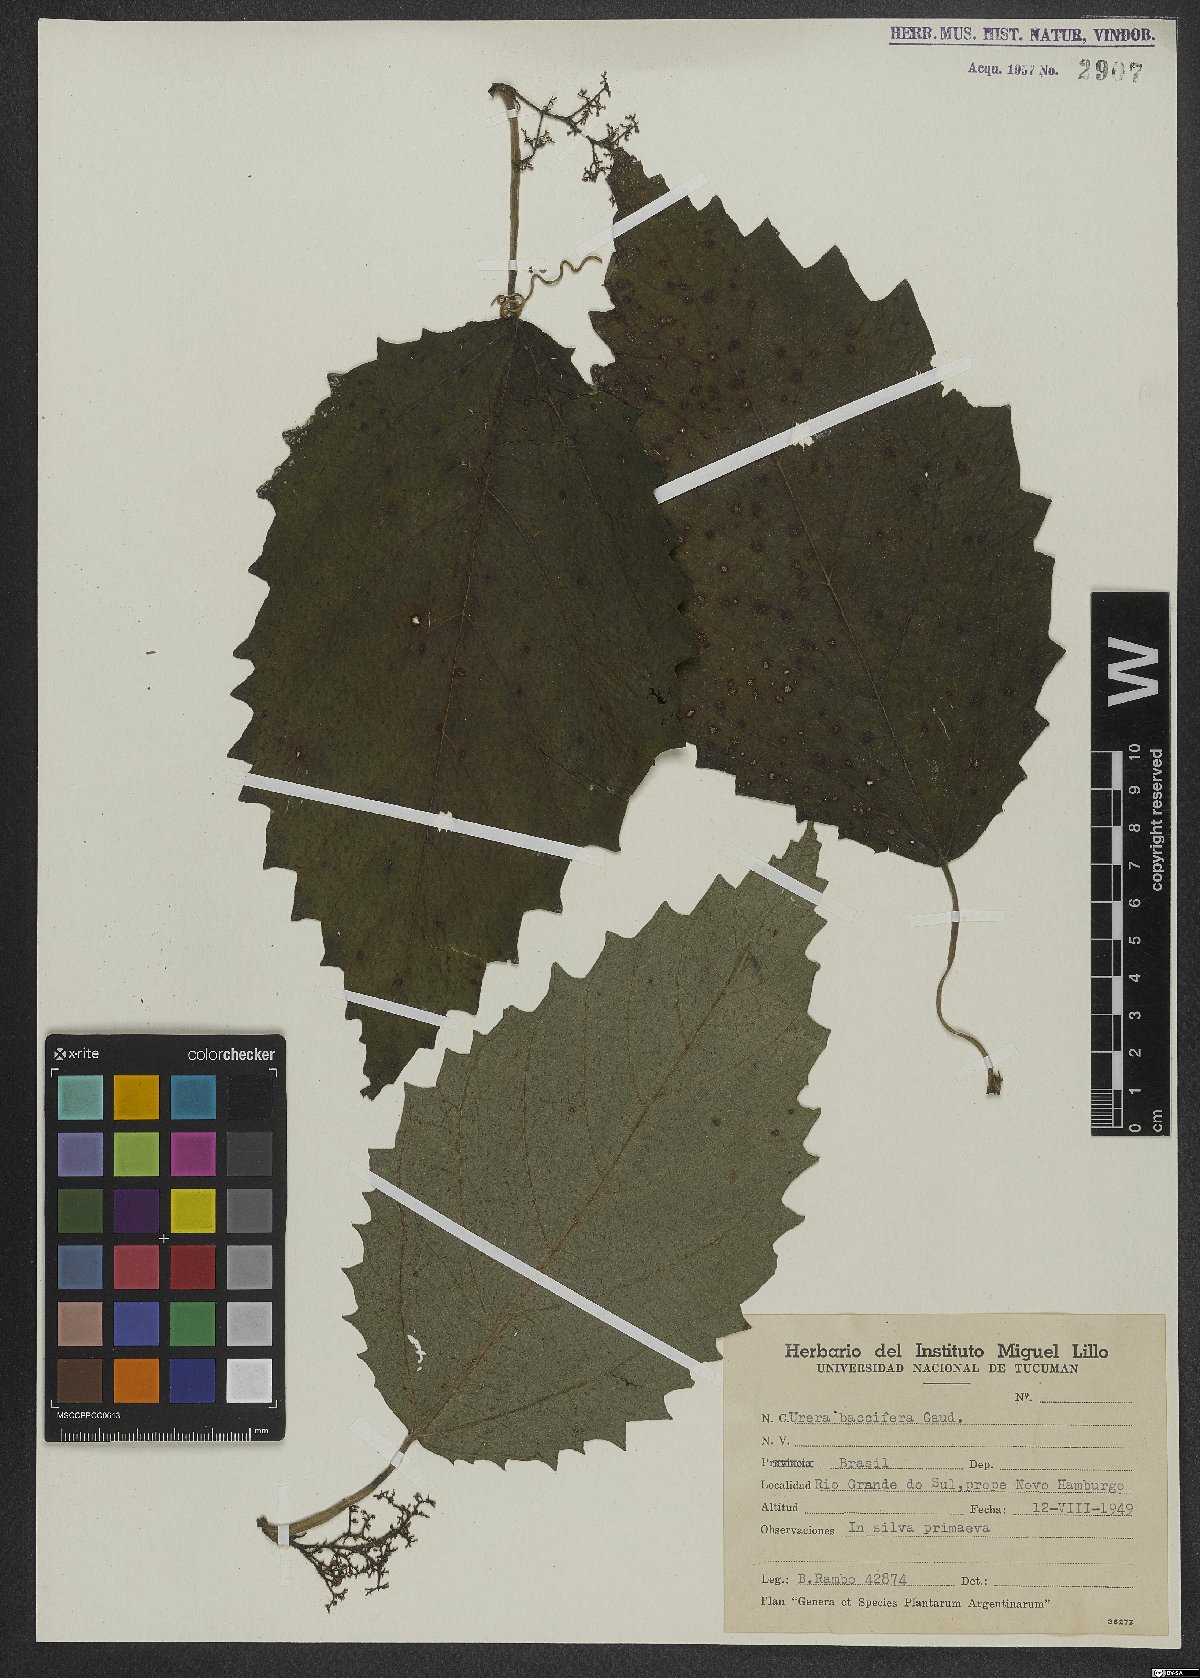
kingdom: Plantae
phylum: Tracheophyta
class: Magnoliopsida
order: Rosales
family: Urticaceae
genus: Urera
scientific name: Urera baccifera
